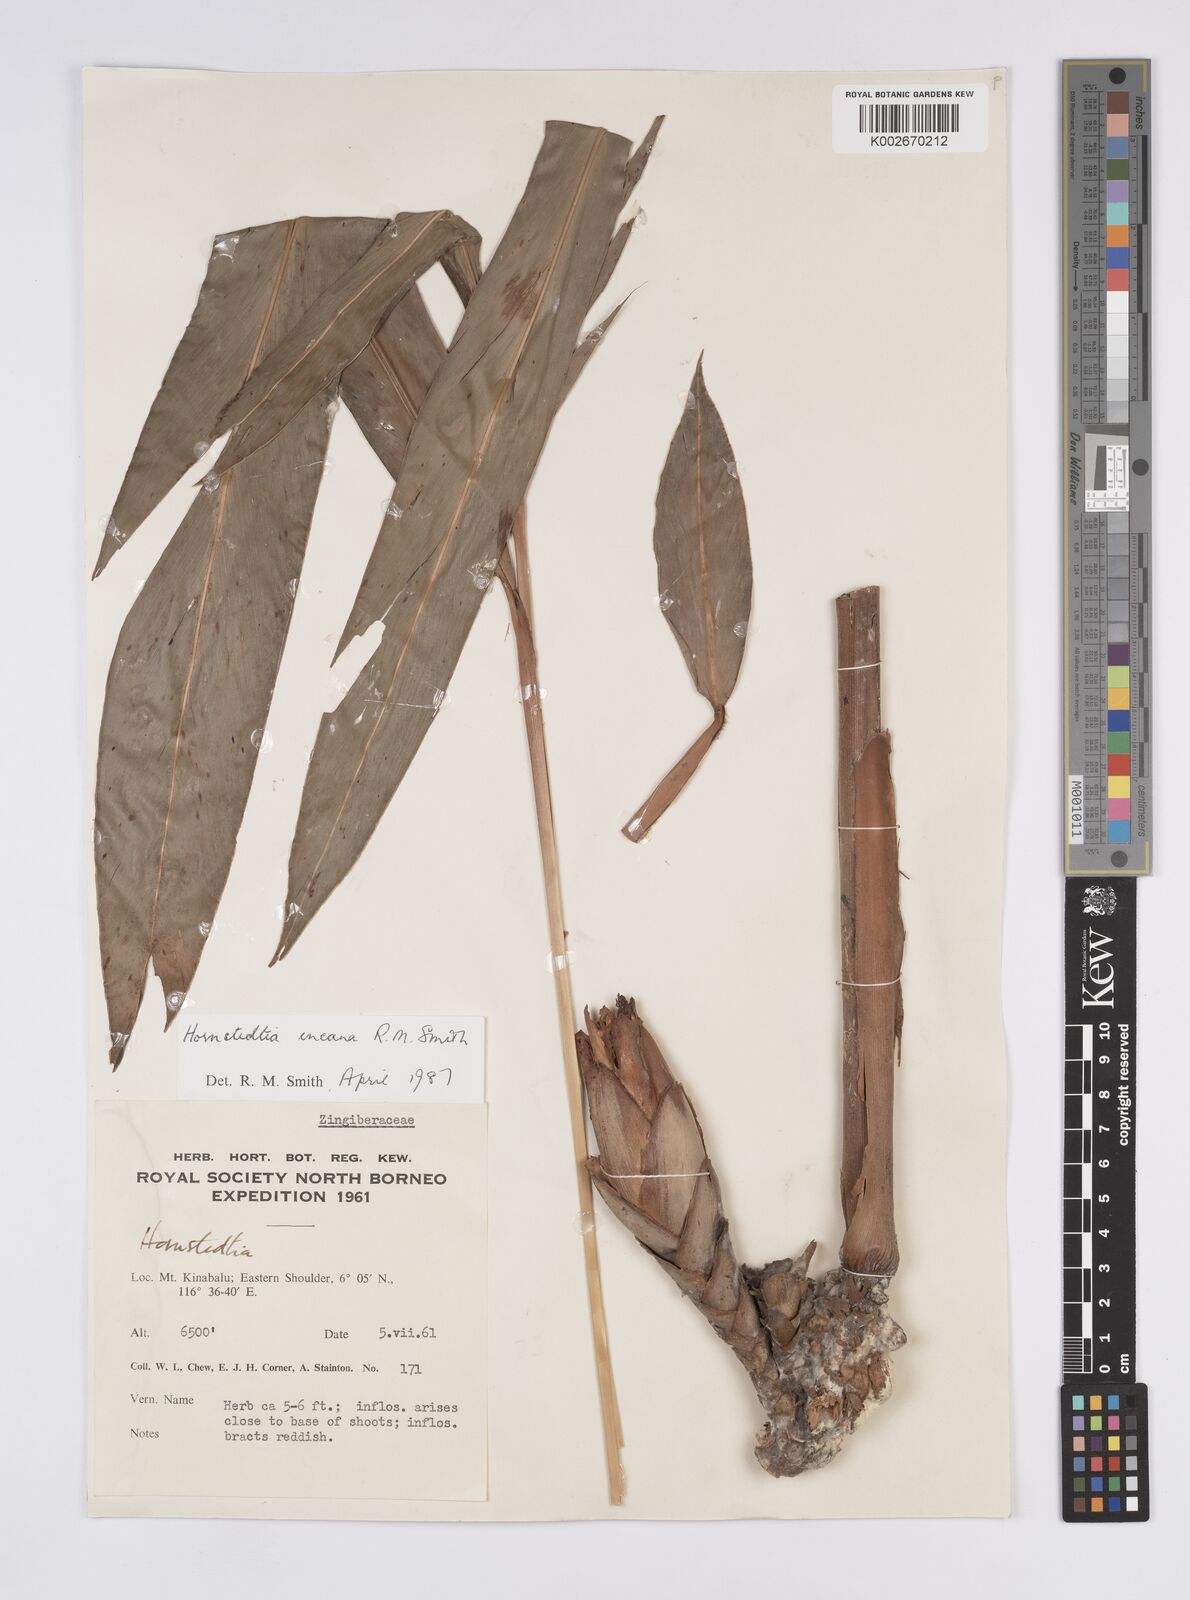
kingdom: Plantae
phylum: Tracheophyta
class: Liliopsida
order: Zingiberales
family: Zingiberaceae
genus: Hornstedtia
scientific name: Hornstedtia incana
